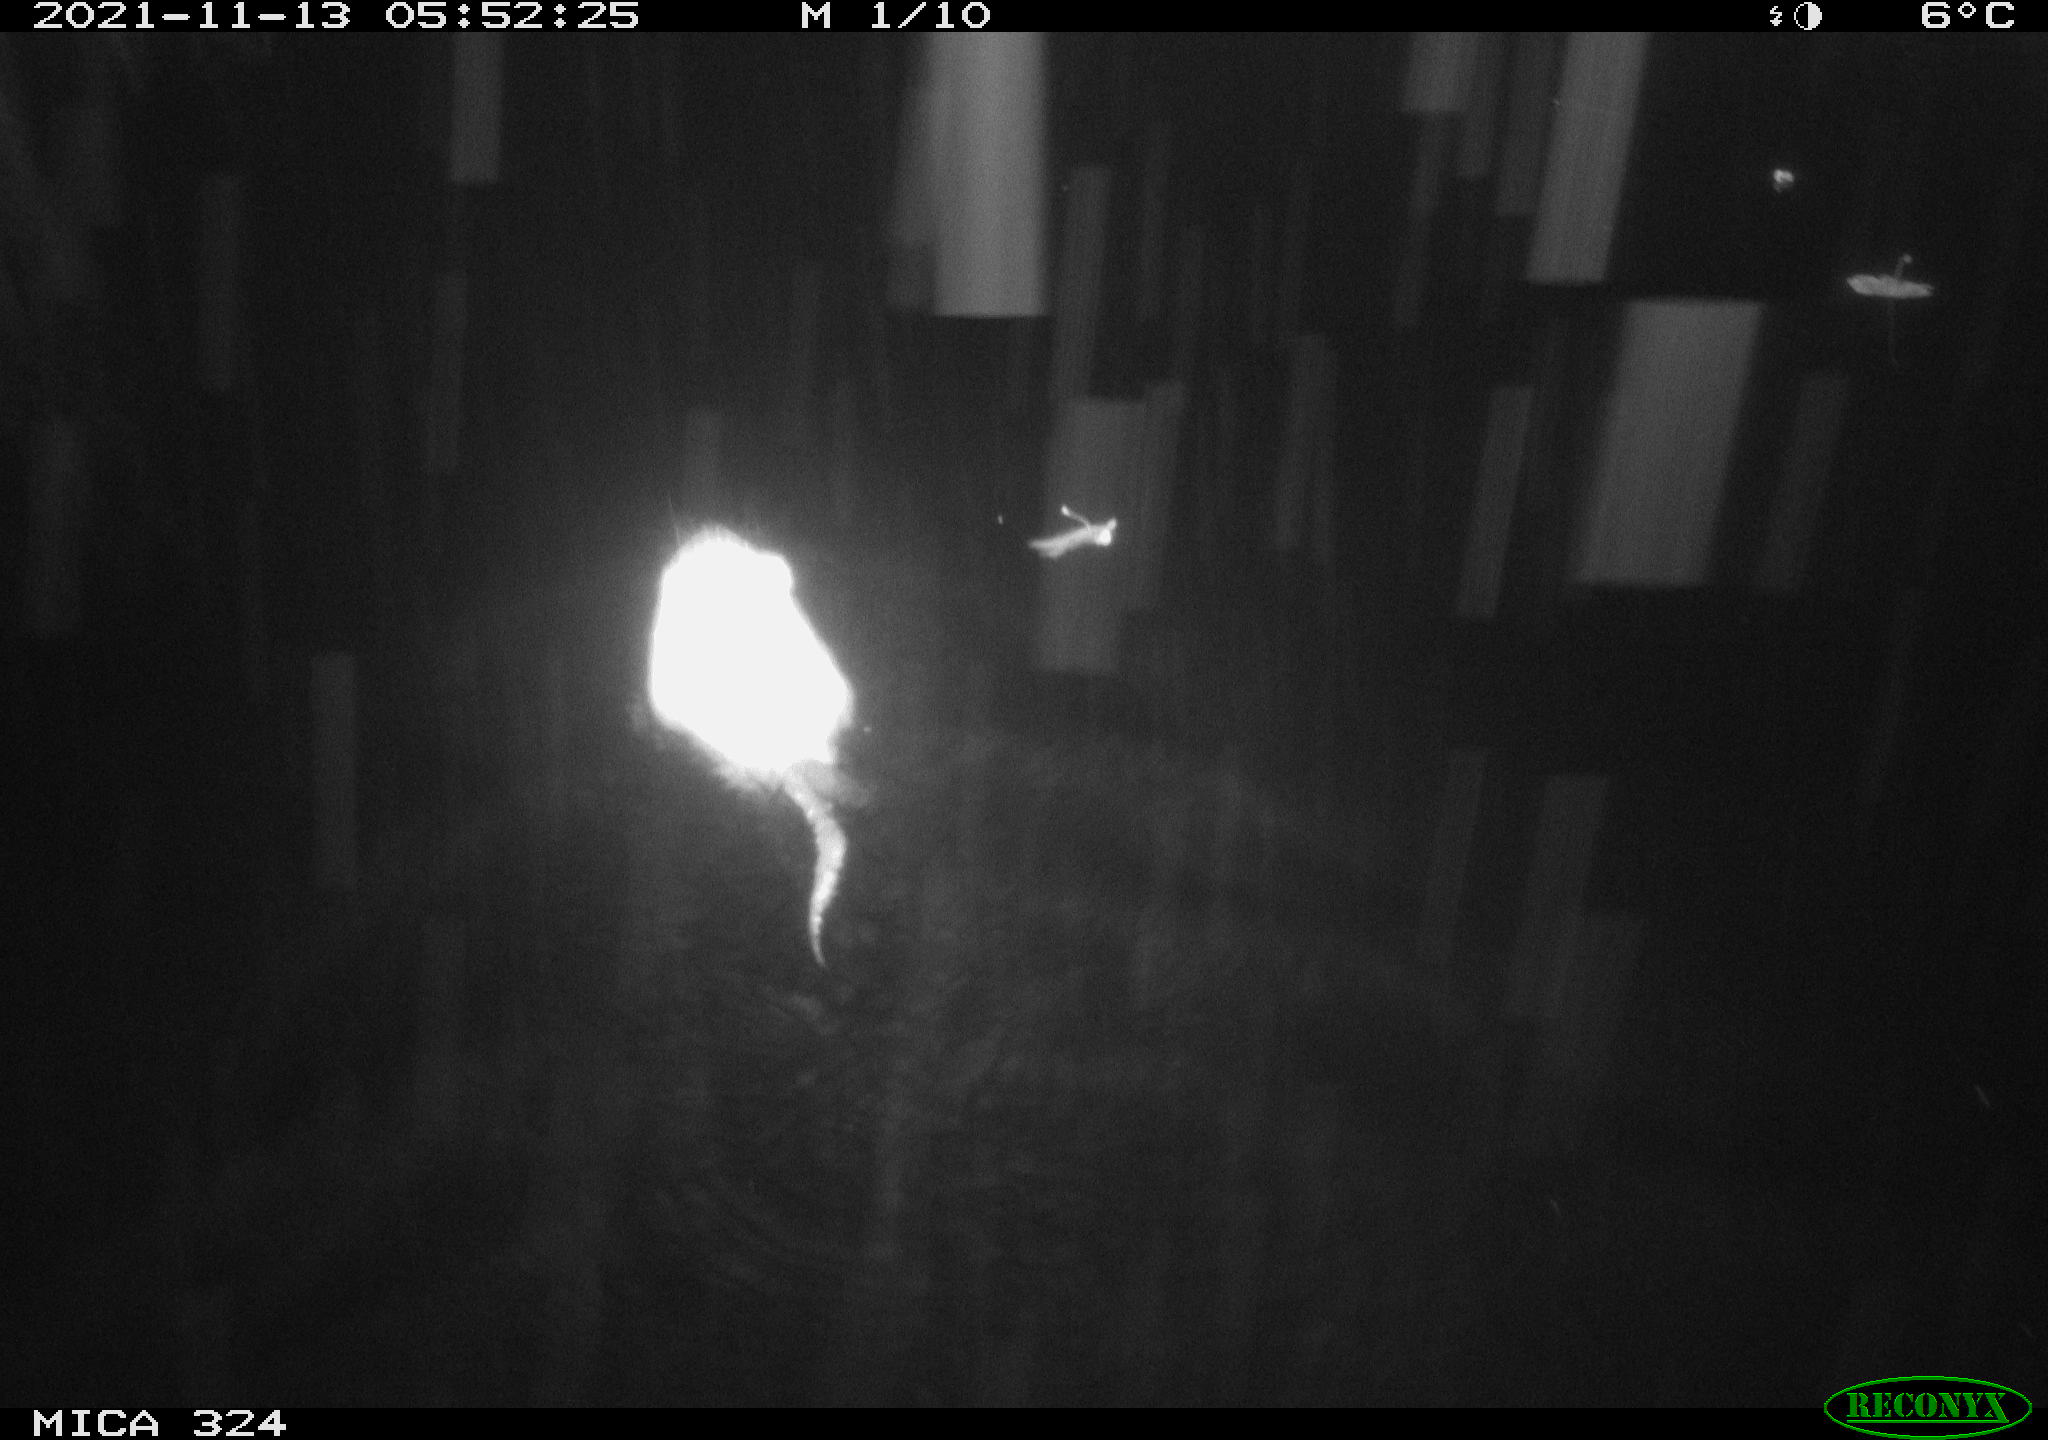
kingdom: Animalia
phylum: Chordata
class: Mammalia
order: Rodentia
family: Cricetidae
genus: Ondatra
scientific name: Ondatra zibethicus
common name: Muskrat
